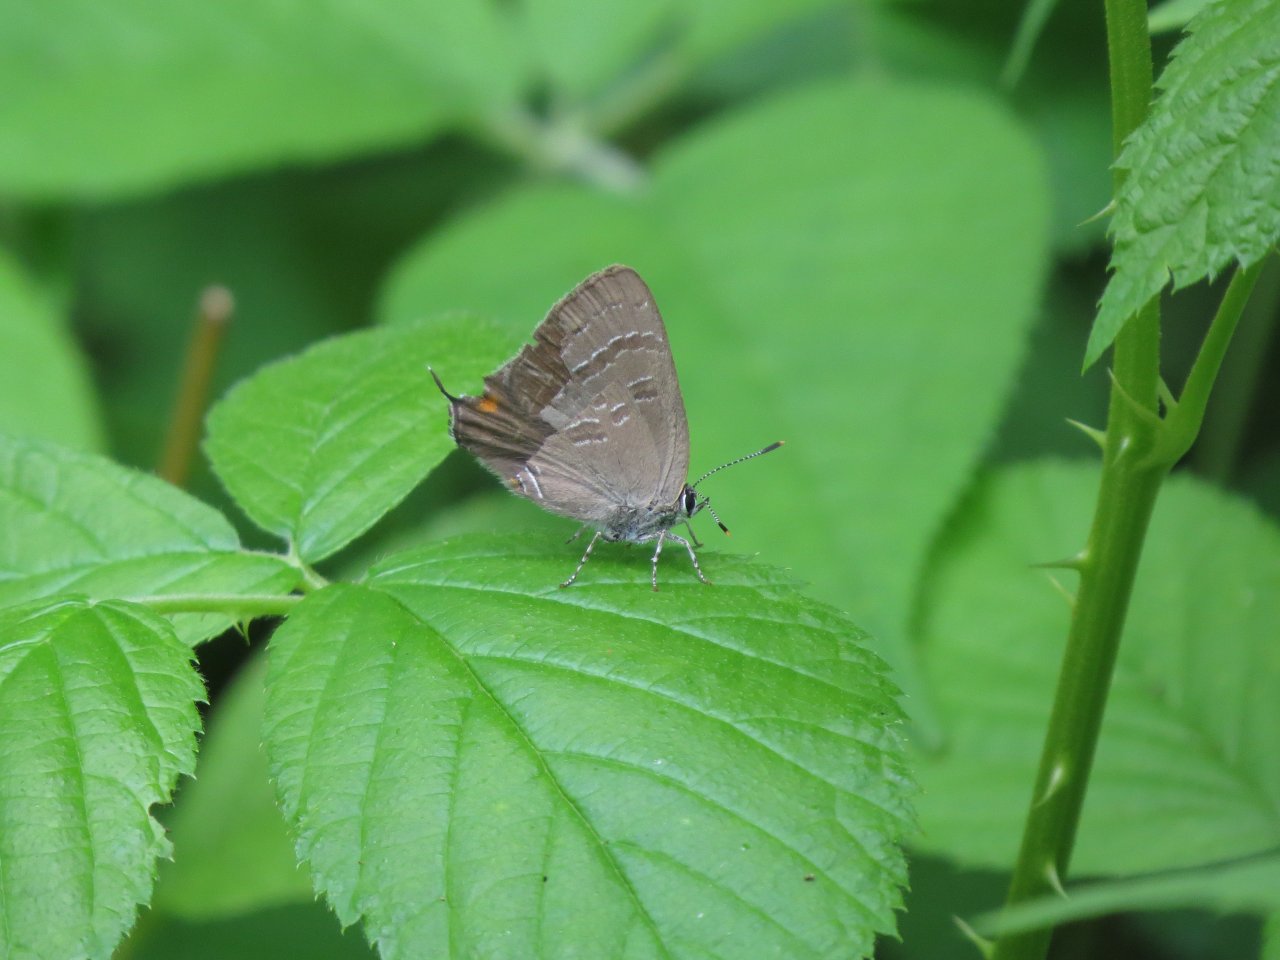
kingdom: Animalia
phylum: Arthropoda
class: Insecta
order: Lepidoptera
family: Lycaenidae
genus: Satyrium
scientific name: Satyrium calanus
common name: Banded Hairstreak
